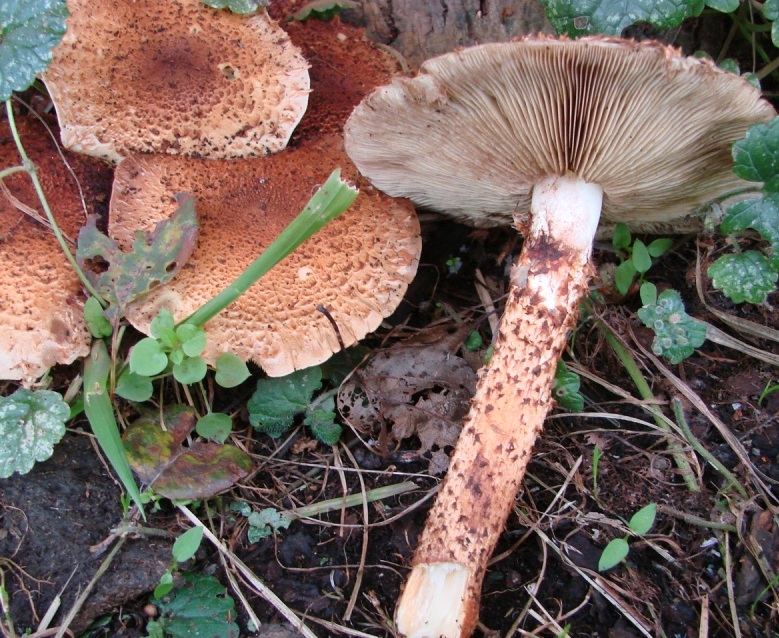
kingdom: Fungi
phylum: Basidiomycota
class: Agaricomycetes
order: Agaricales
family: Strophariaceae
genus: Pholiota
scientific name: Pholiota squarrosa
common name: krumskællet skælhat
